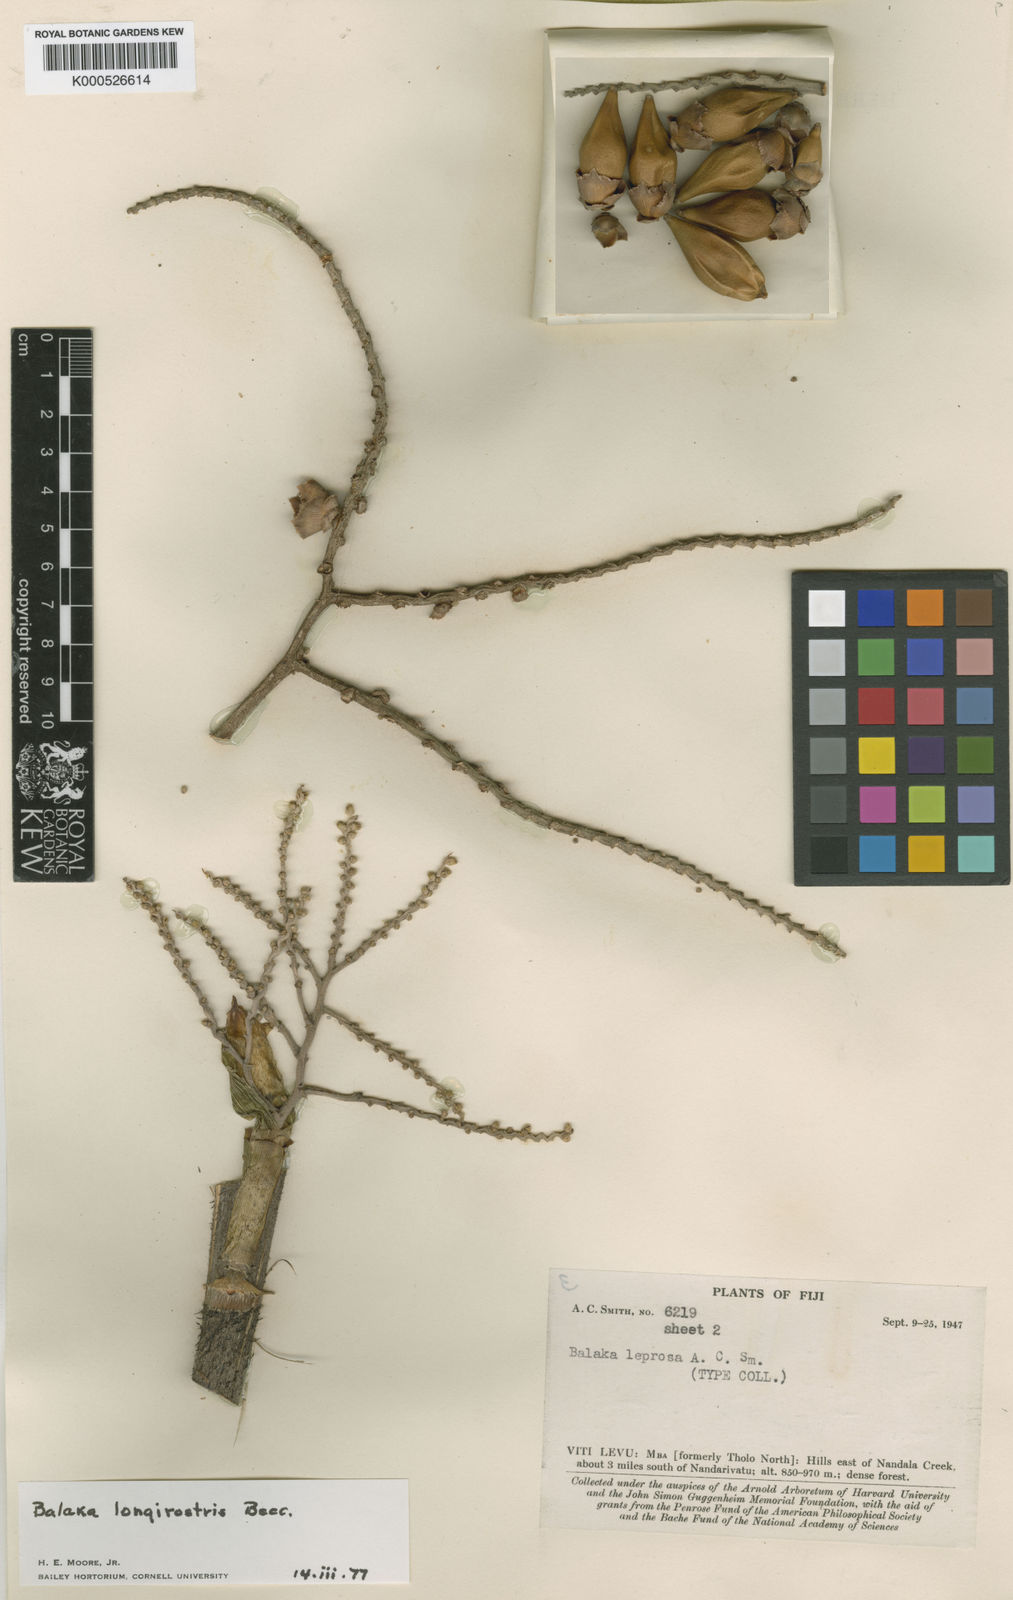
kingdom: Plantae
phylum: Tracheophyta
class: Liliopsida
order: Arecales
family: Arecaceae
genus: Balaka
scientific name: Balaka samoensis
